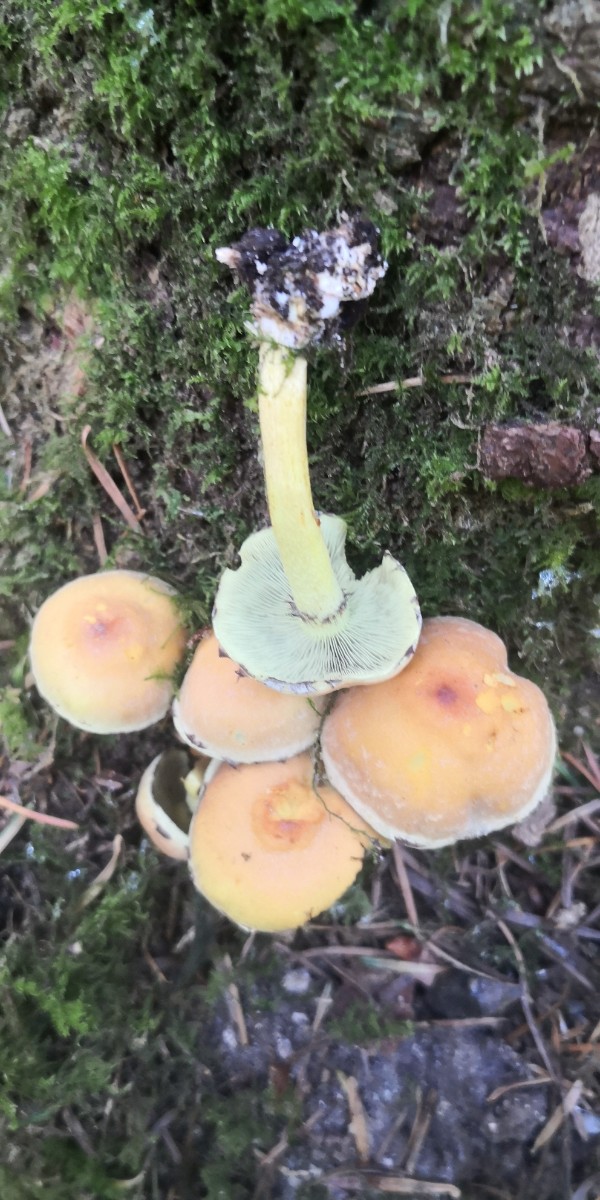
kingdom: Fungi
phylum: Basidiomycota
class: Agaricomycetes
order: Agaricales
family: Strophariaceae
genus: Hypholoma
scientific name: Hypholoma fasciculare
